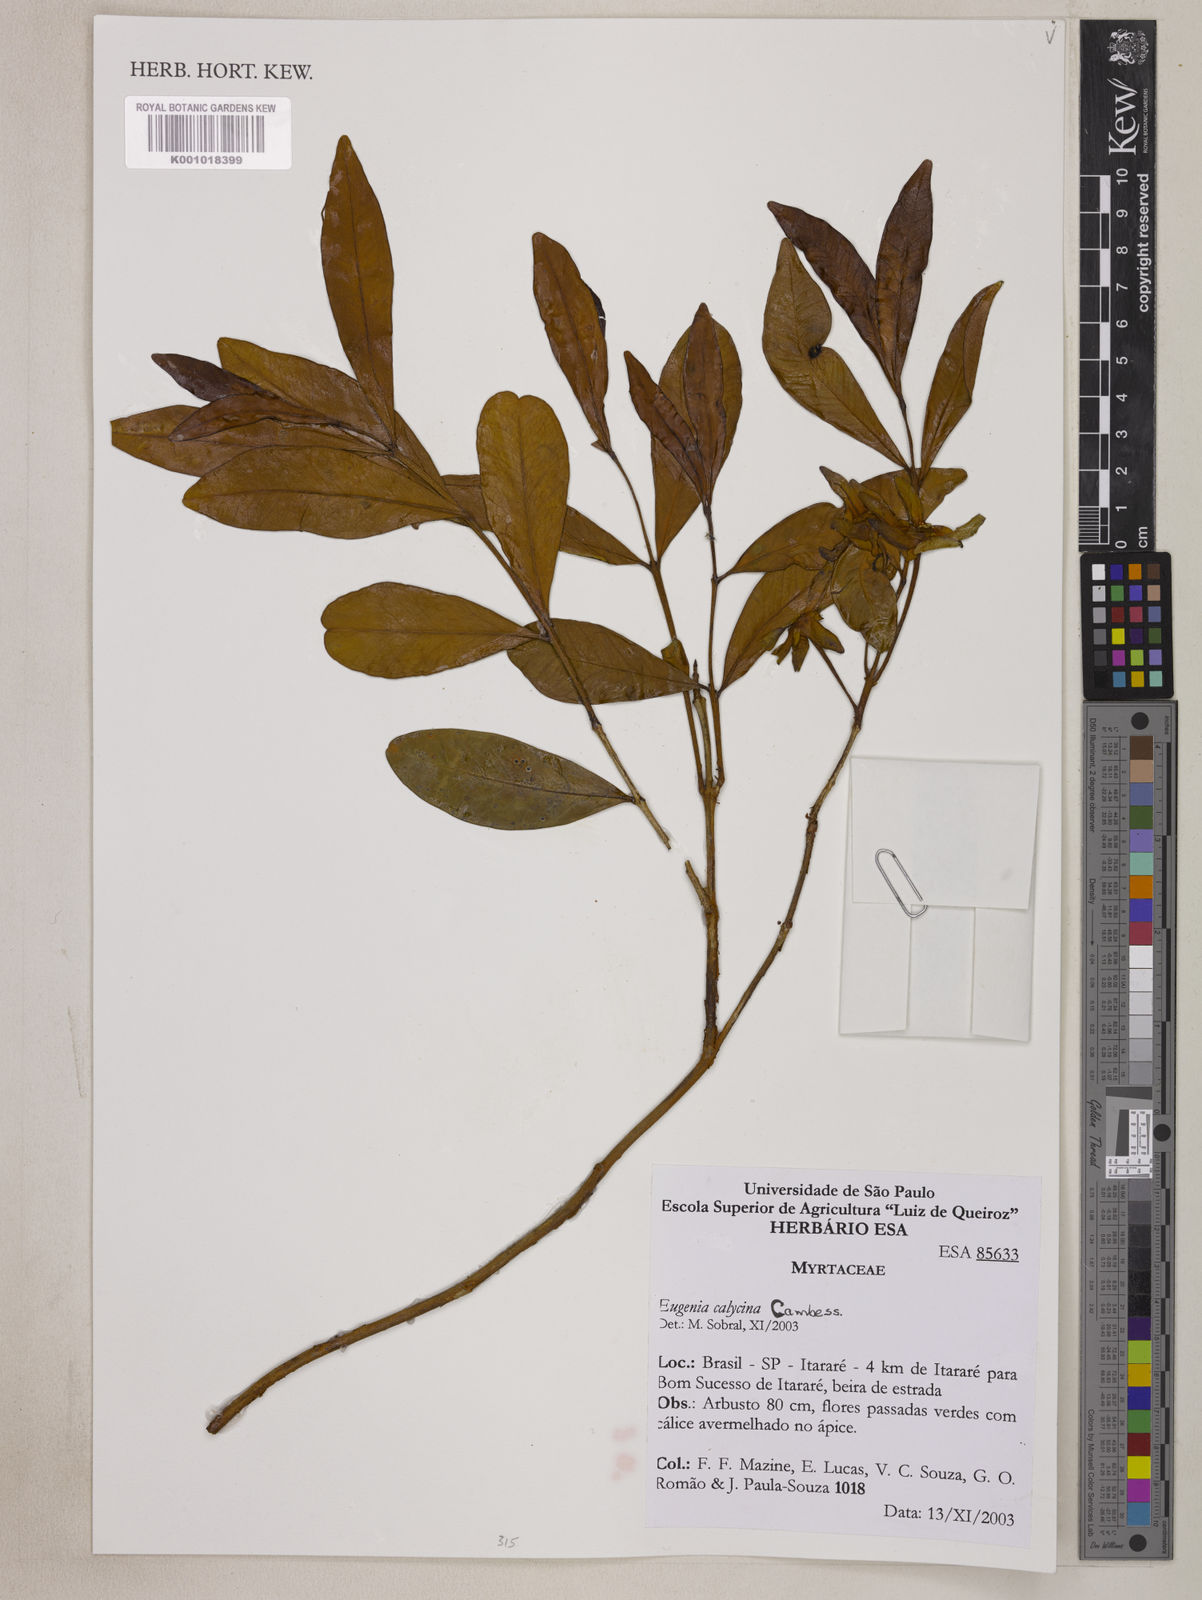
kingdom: Plantae
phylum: Tracheophyta
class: Magnoliopsida
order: Myrtales
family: Myrtaceae
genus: Eugenia
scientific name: Eugenia calycina
